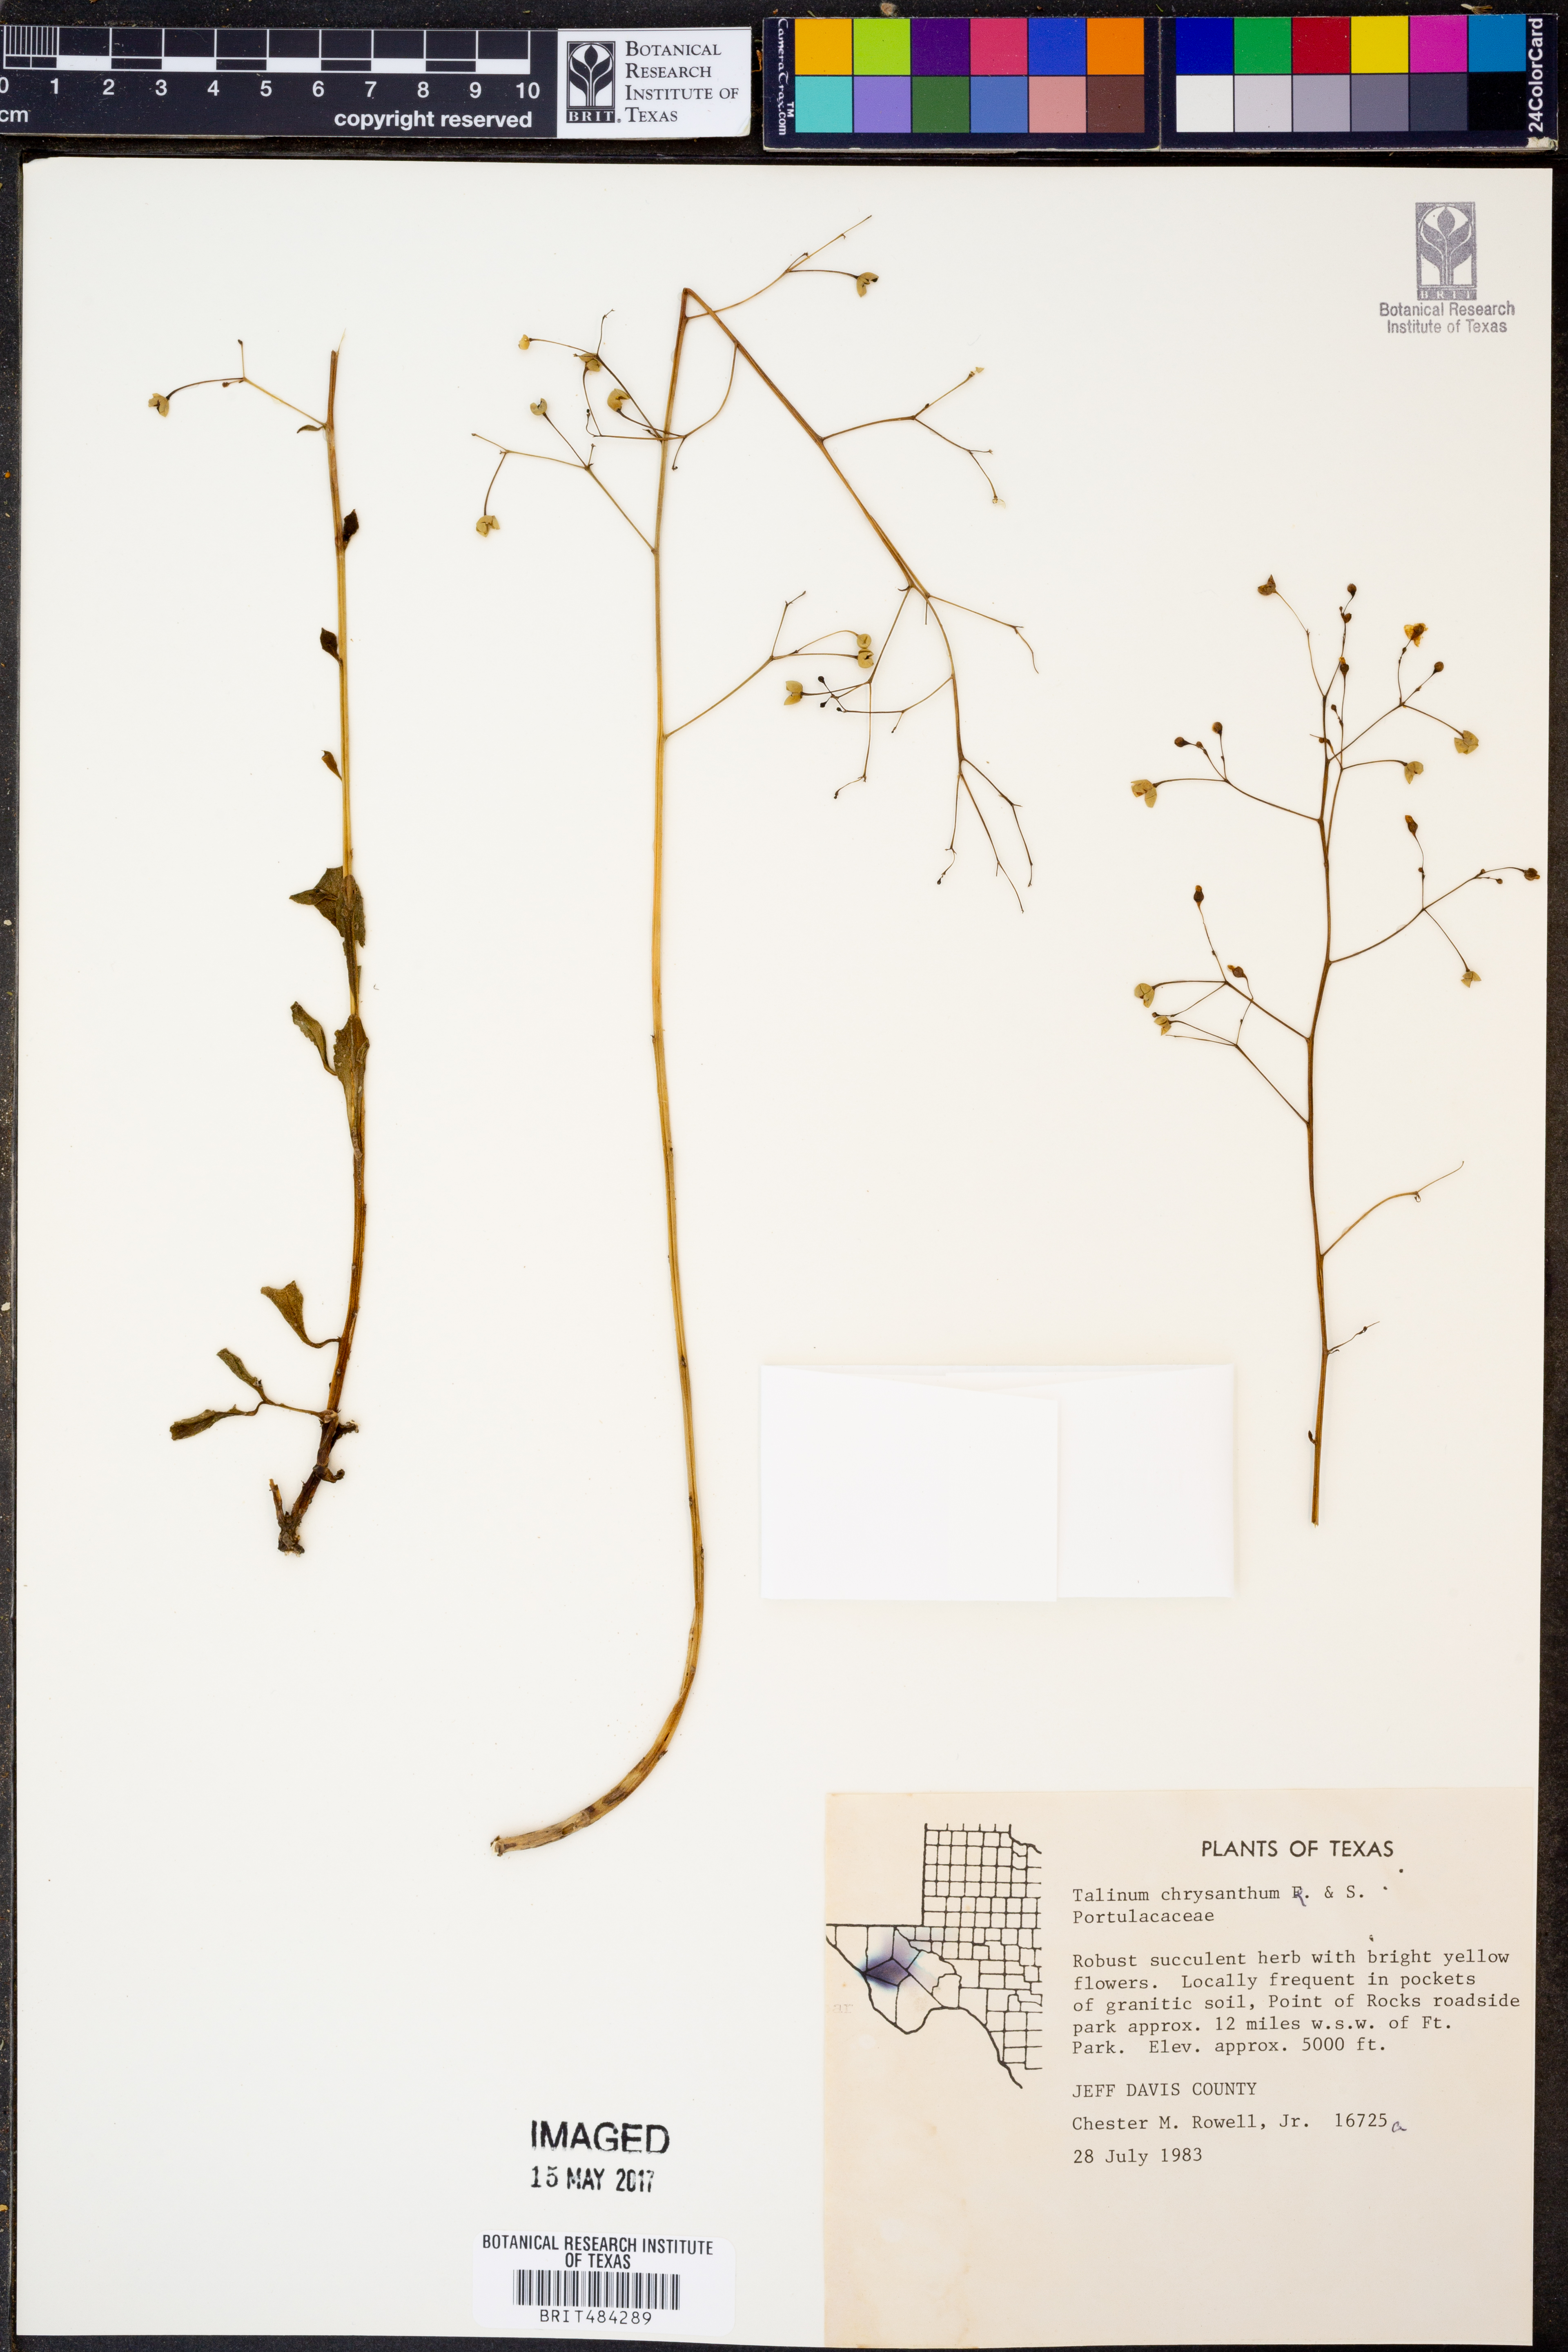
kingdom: Plantae
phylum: Tracheophyta
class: Magnoliopsida
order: Caryophyllales
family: Talinaceae
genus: Talinum
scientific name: Talinum paniculatum
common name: Jewels of opar
